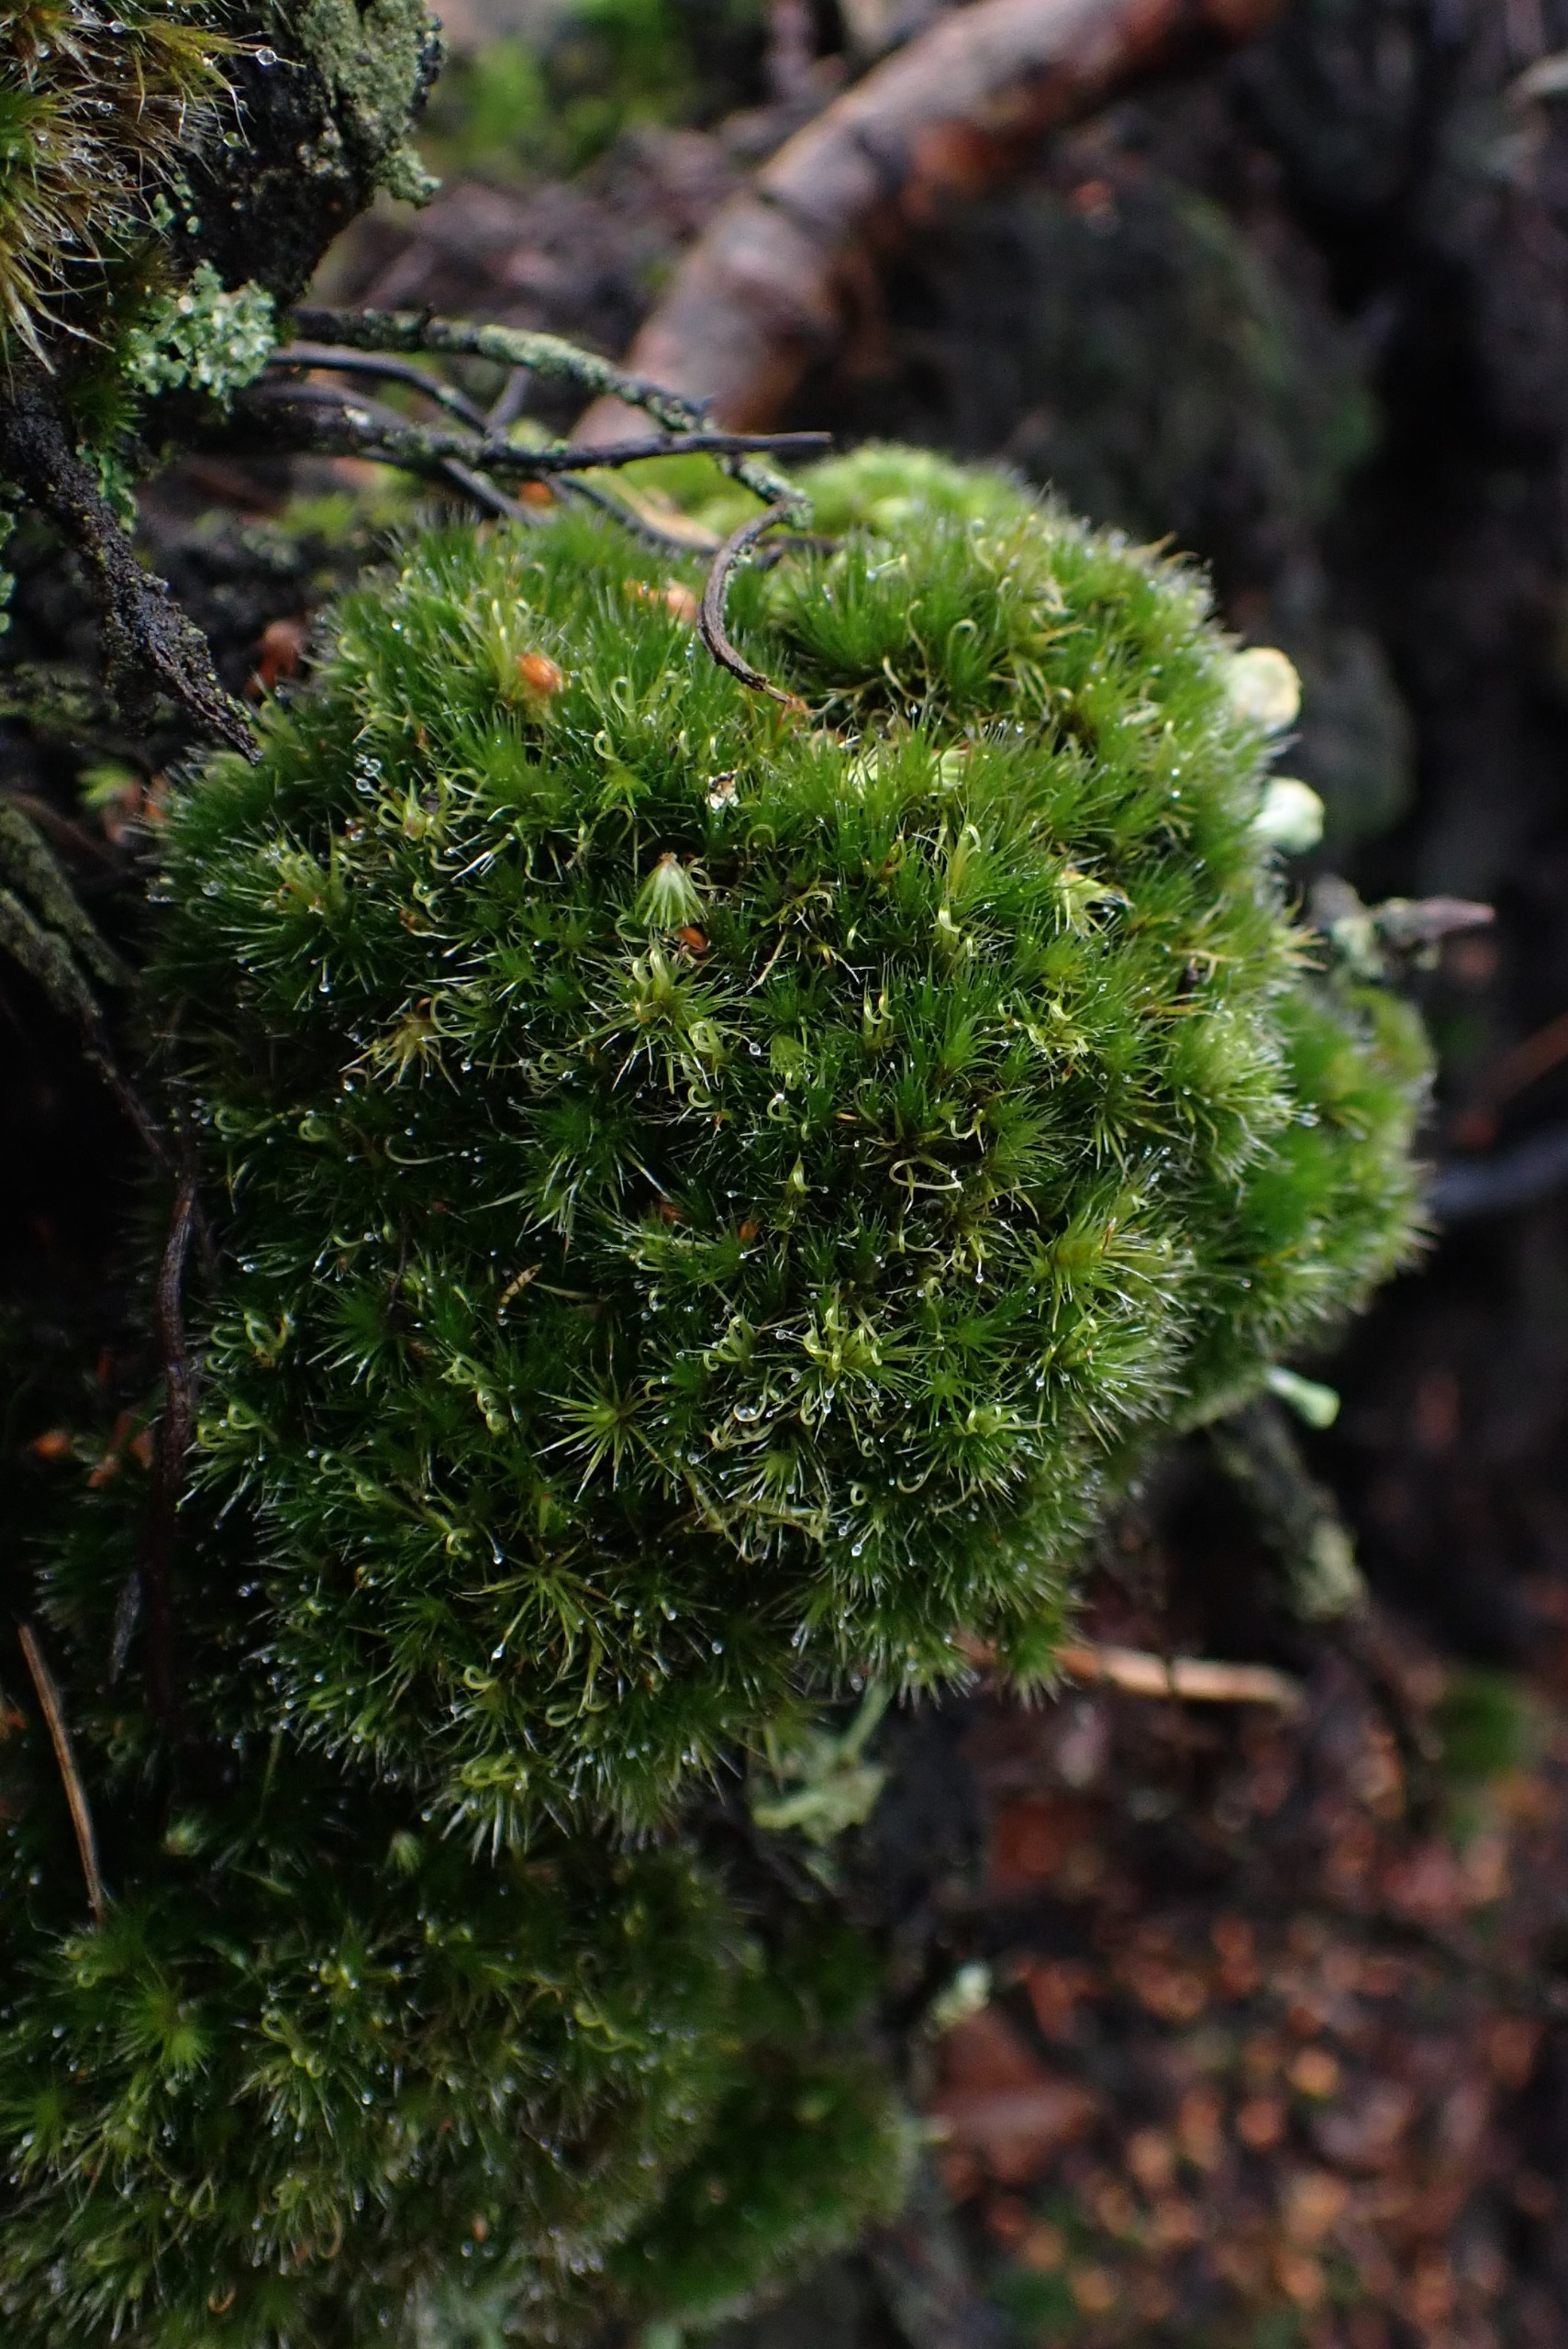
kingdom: Plantae
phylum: Bryophyta
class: Bryopsida
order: Dicranales
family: Leucobryaceae
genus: Campylopus
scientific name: Campylopus introflexus
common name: Stjerne-bredribbe
